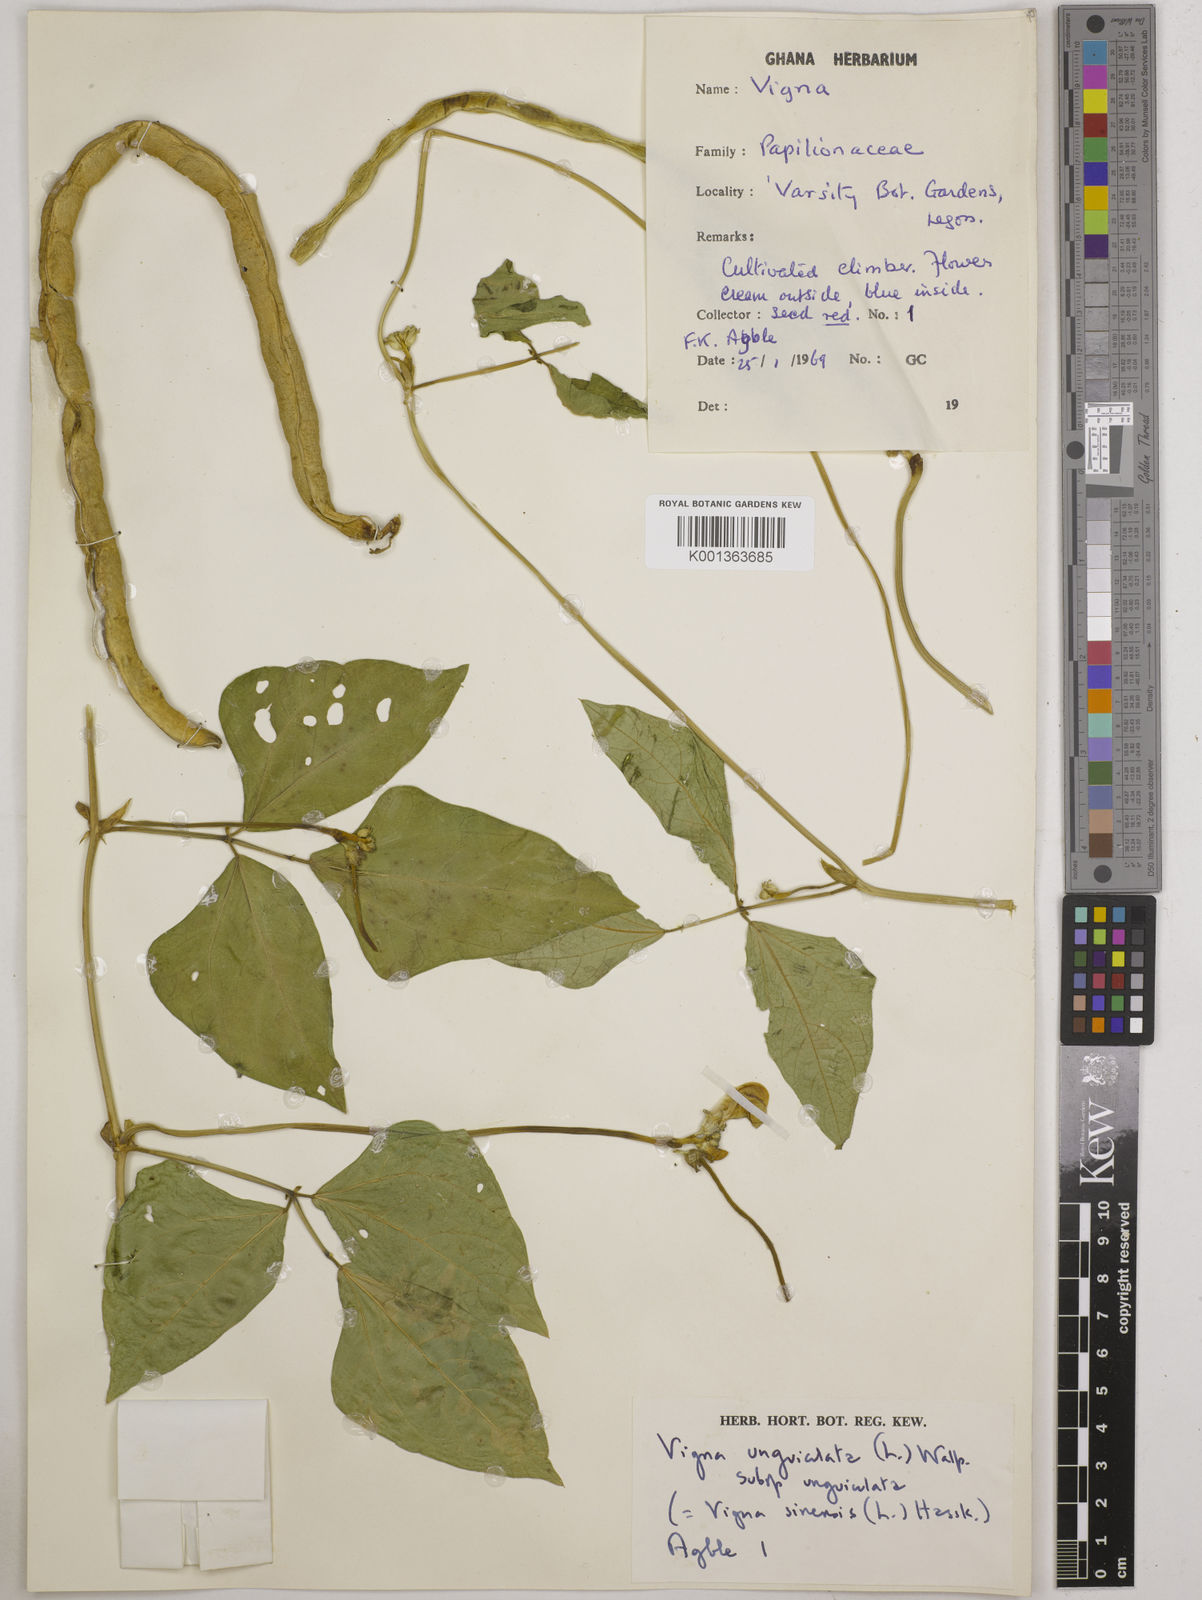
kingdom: Plantae
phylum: Tracheophyta
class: Magnoliopsida
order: Fabales
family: Fabaceae
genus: Vigna
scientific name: Vigna unguiculata
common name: Cowpea
